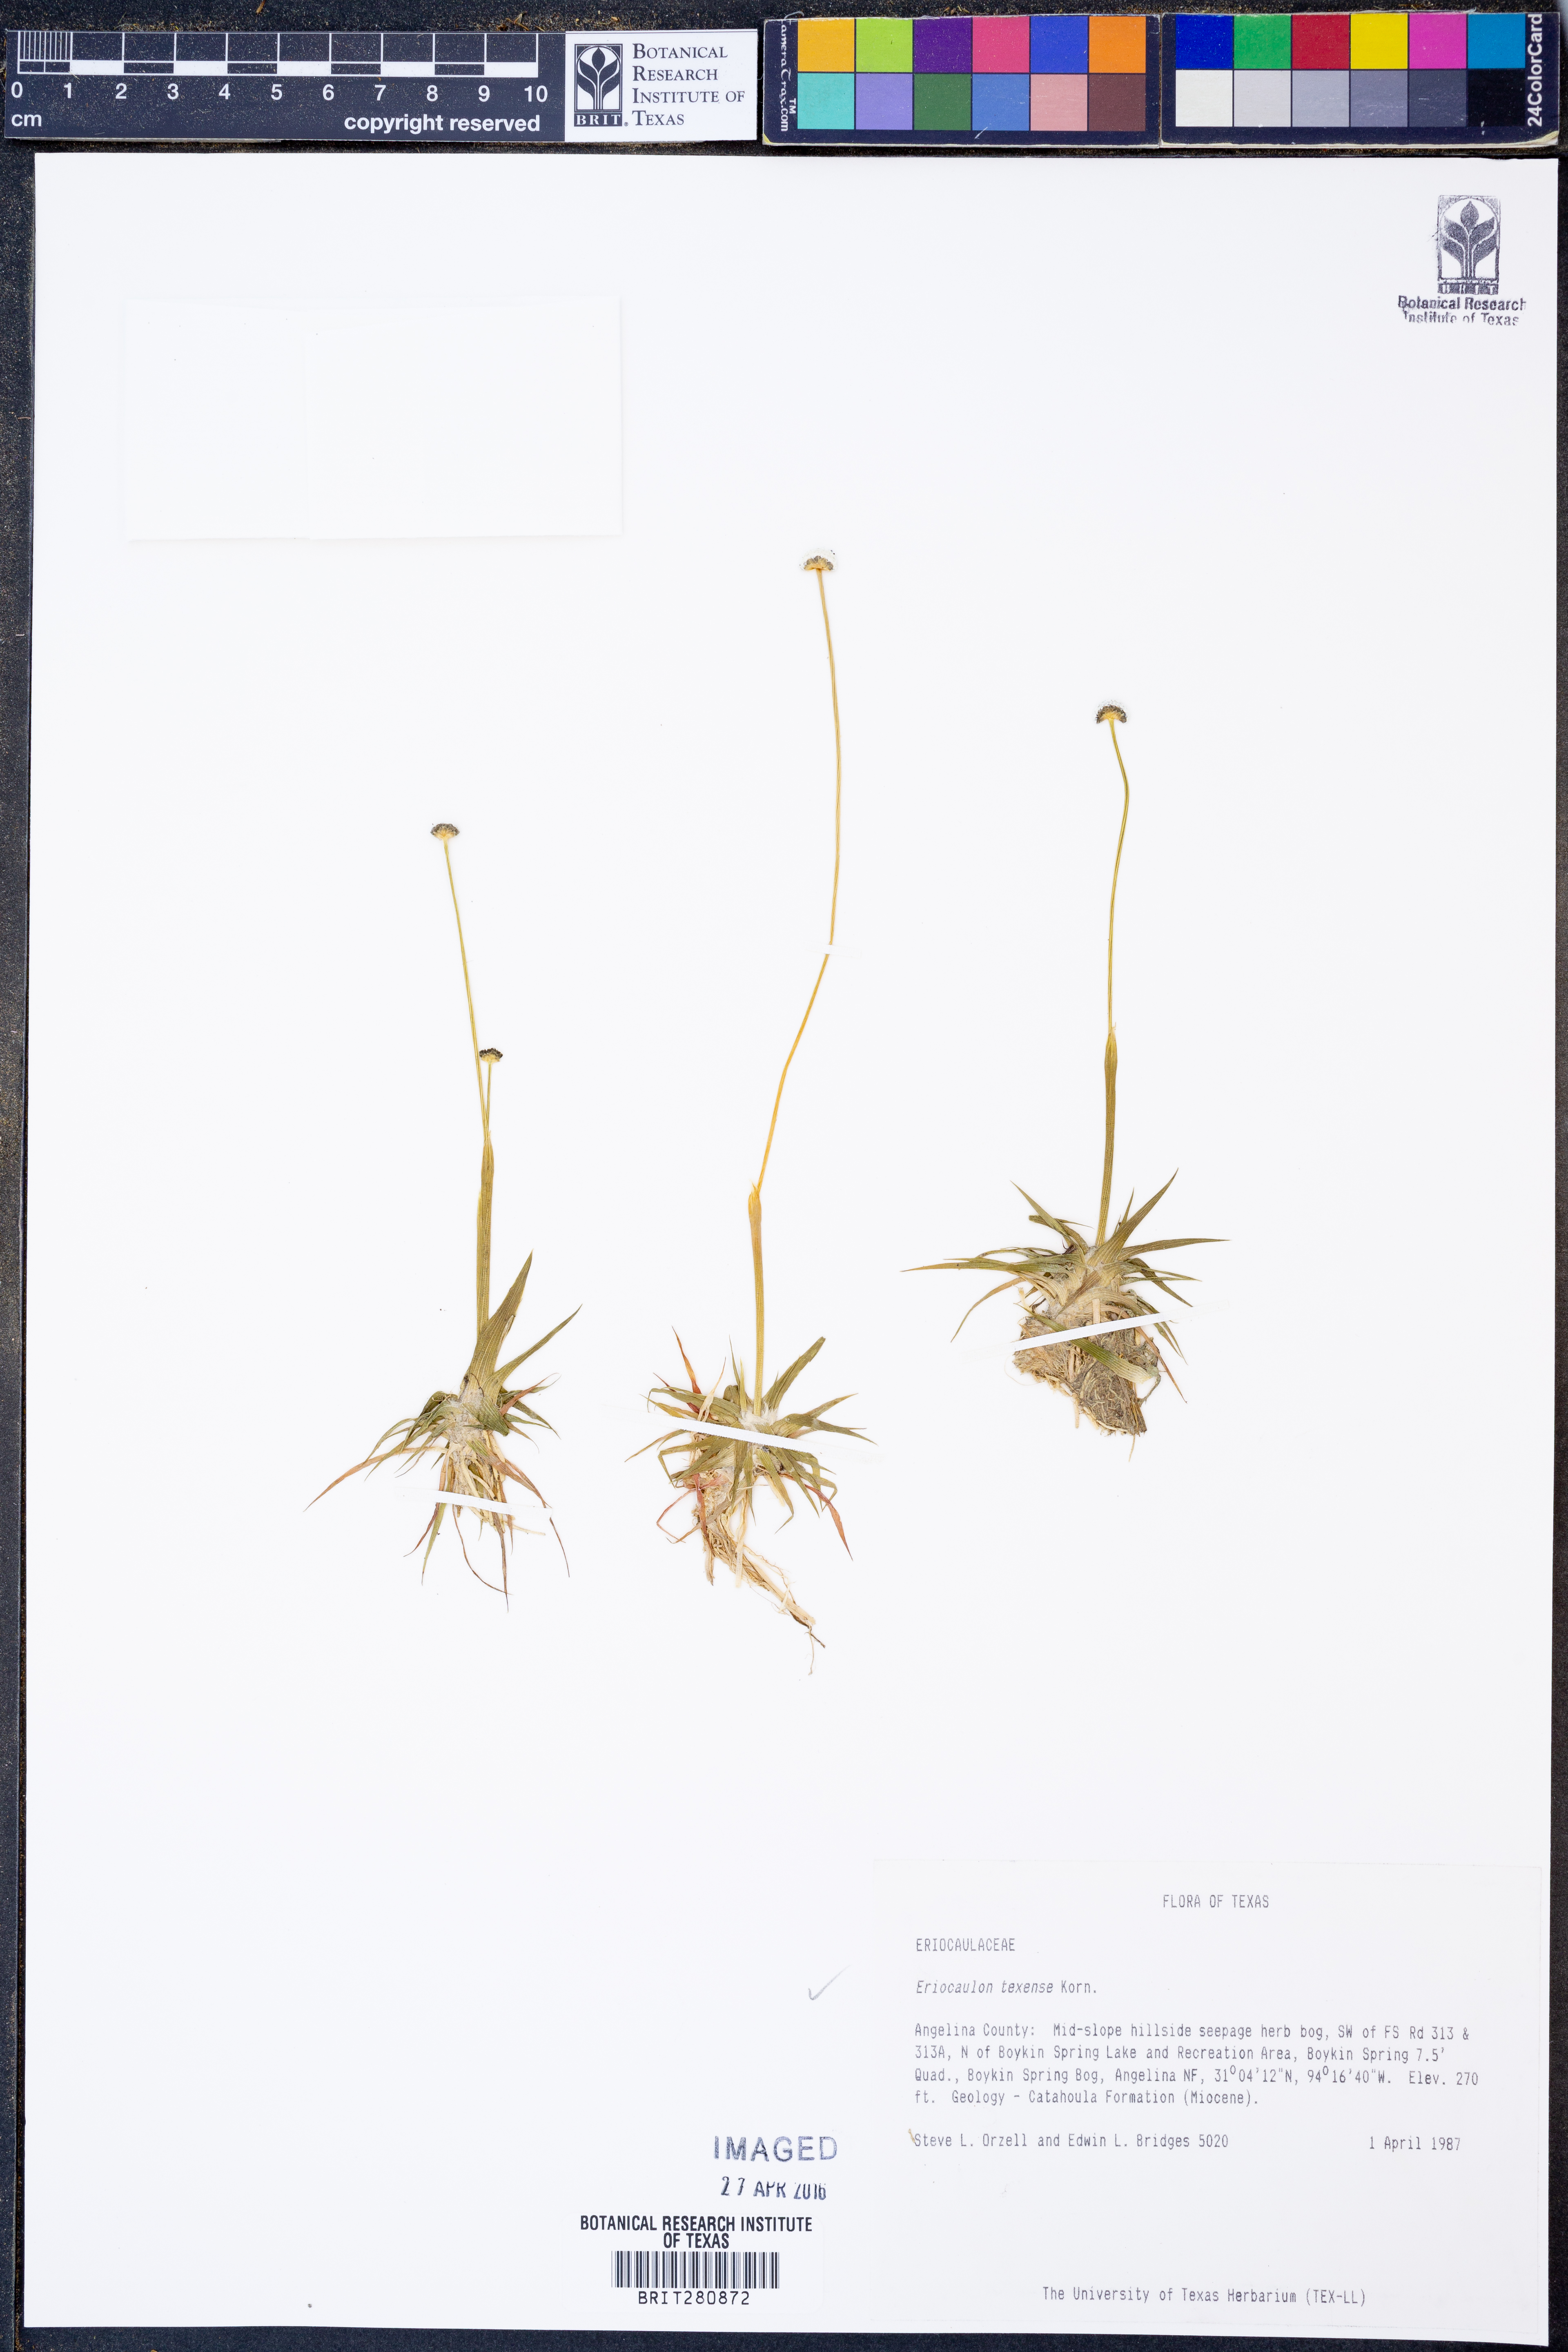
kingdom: Plantae
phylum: Tracheophyta
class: Liliopsida
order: Poales
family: Eriocaulaceae
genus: Eriocaulon
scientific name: Eriocaulon texense
